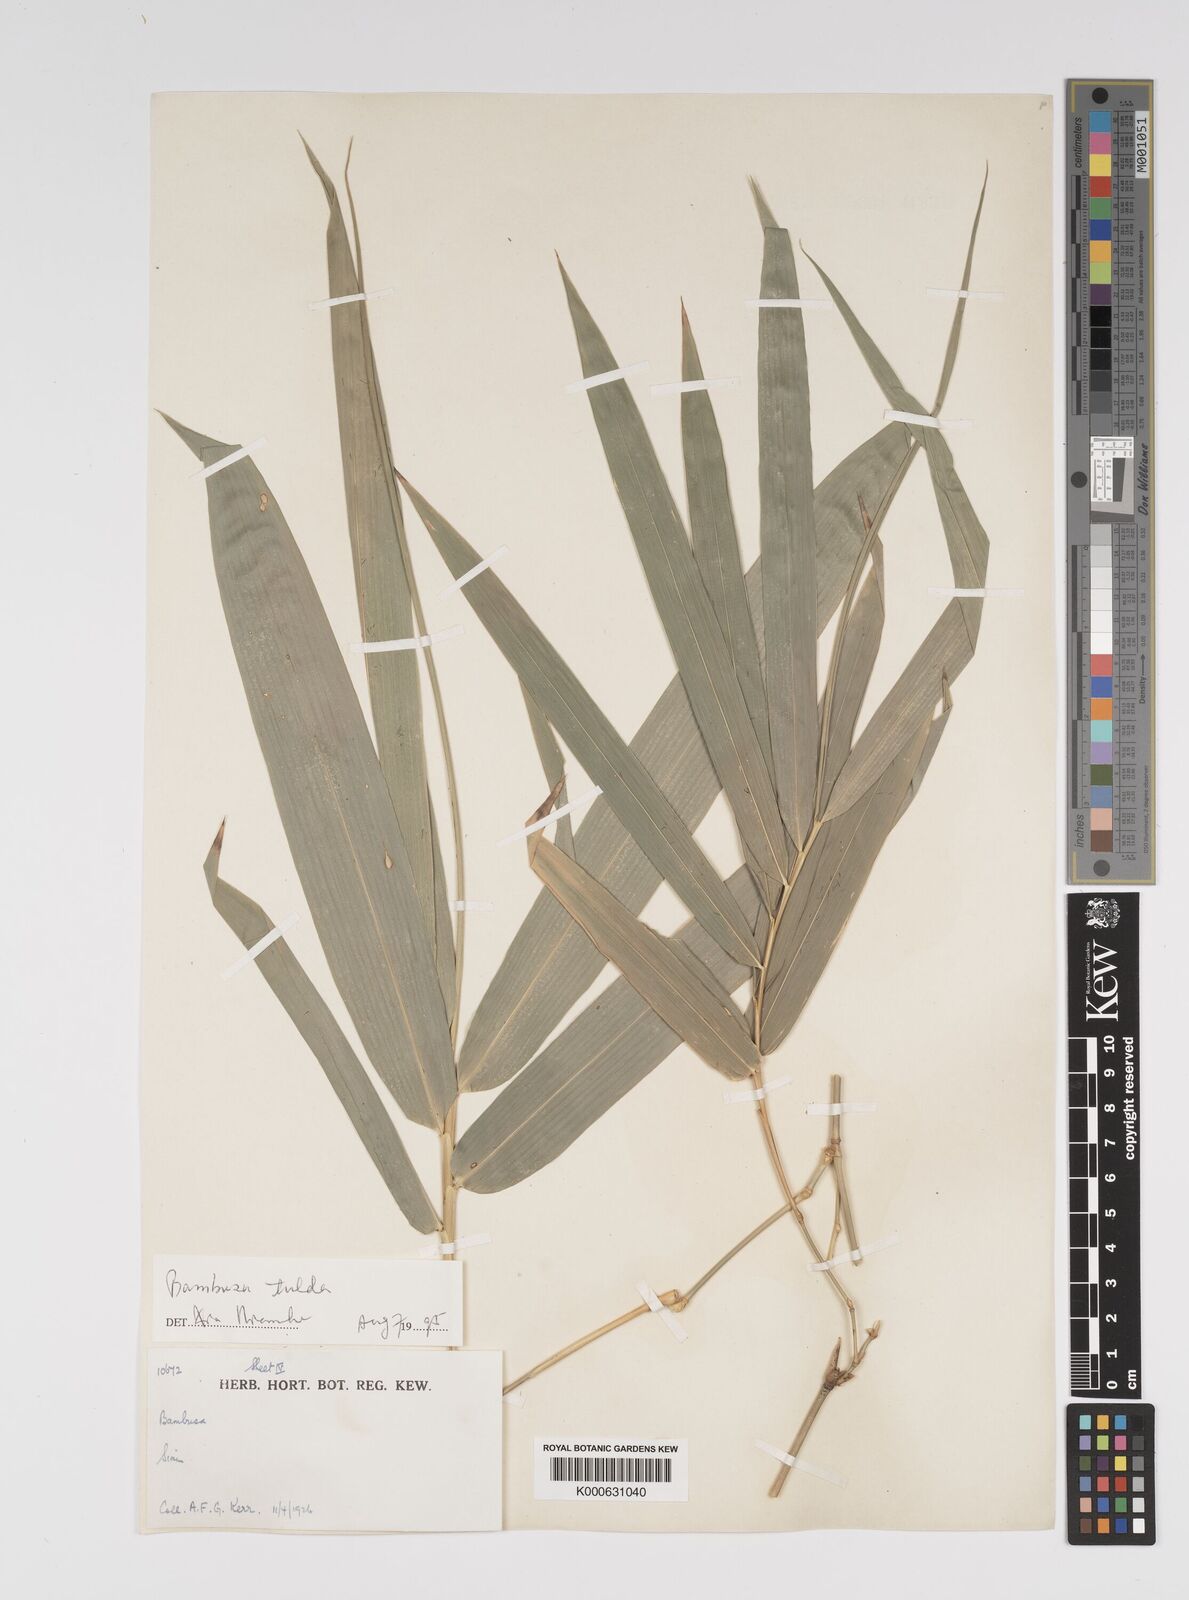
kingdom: Plantae
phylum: Tracheophyta
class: Liliopsida
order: Poales
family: Poaceae
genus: Bambusa
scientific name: Bambusa
